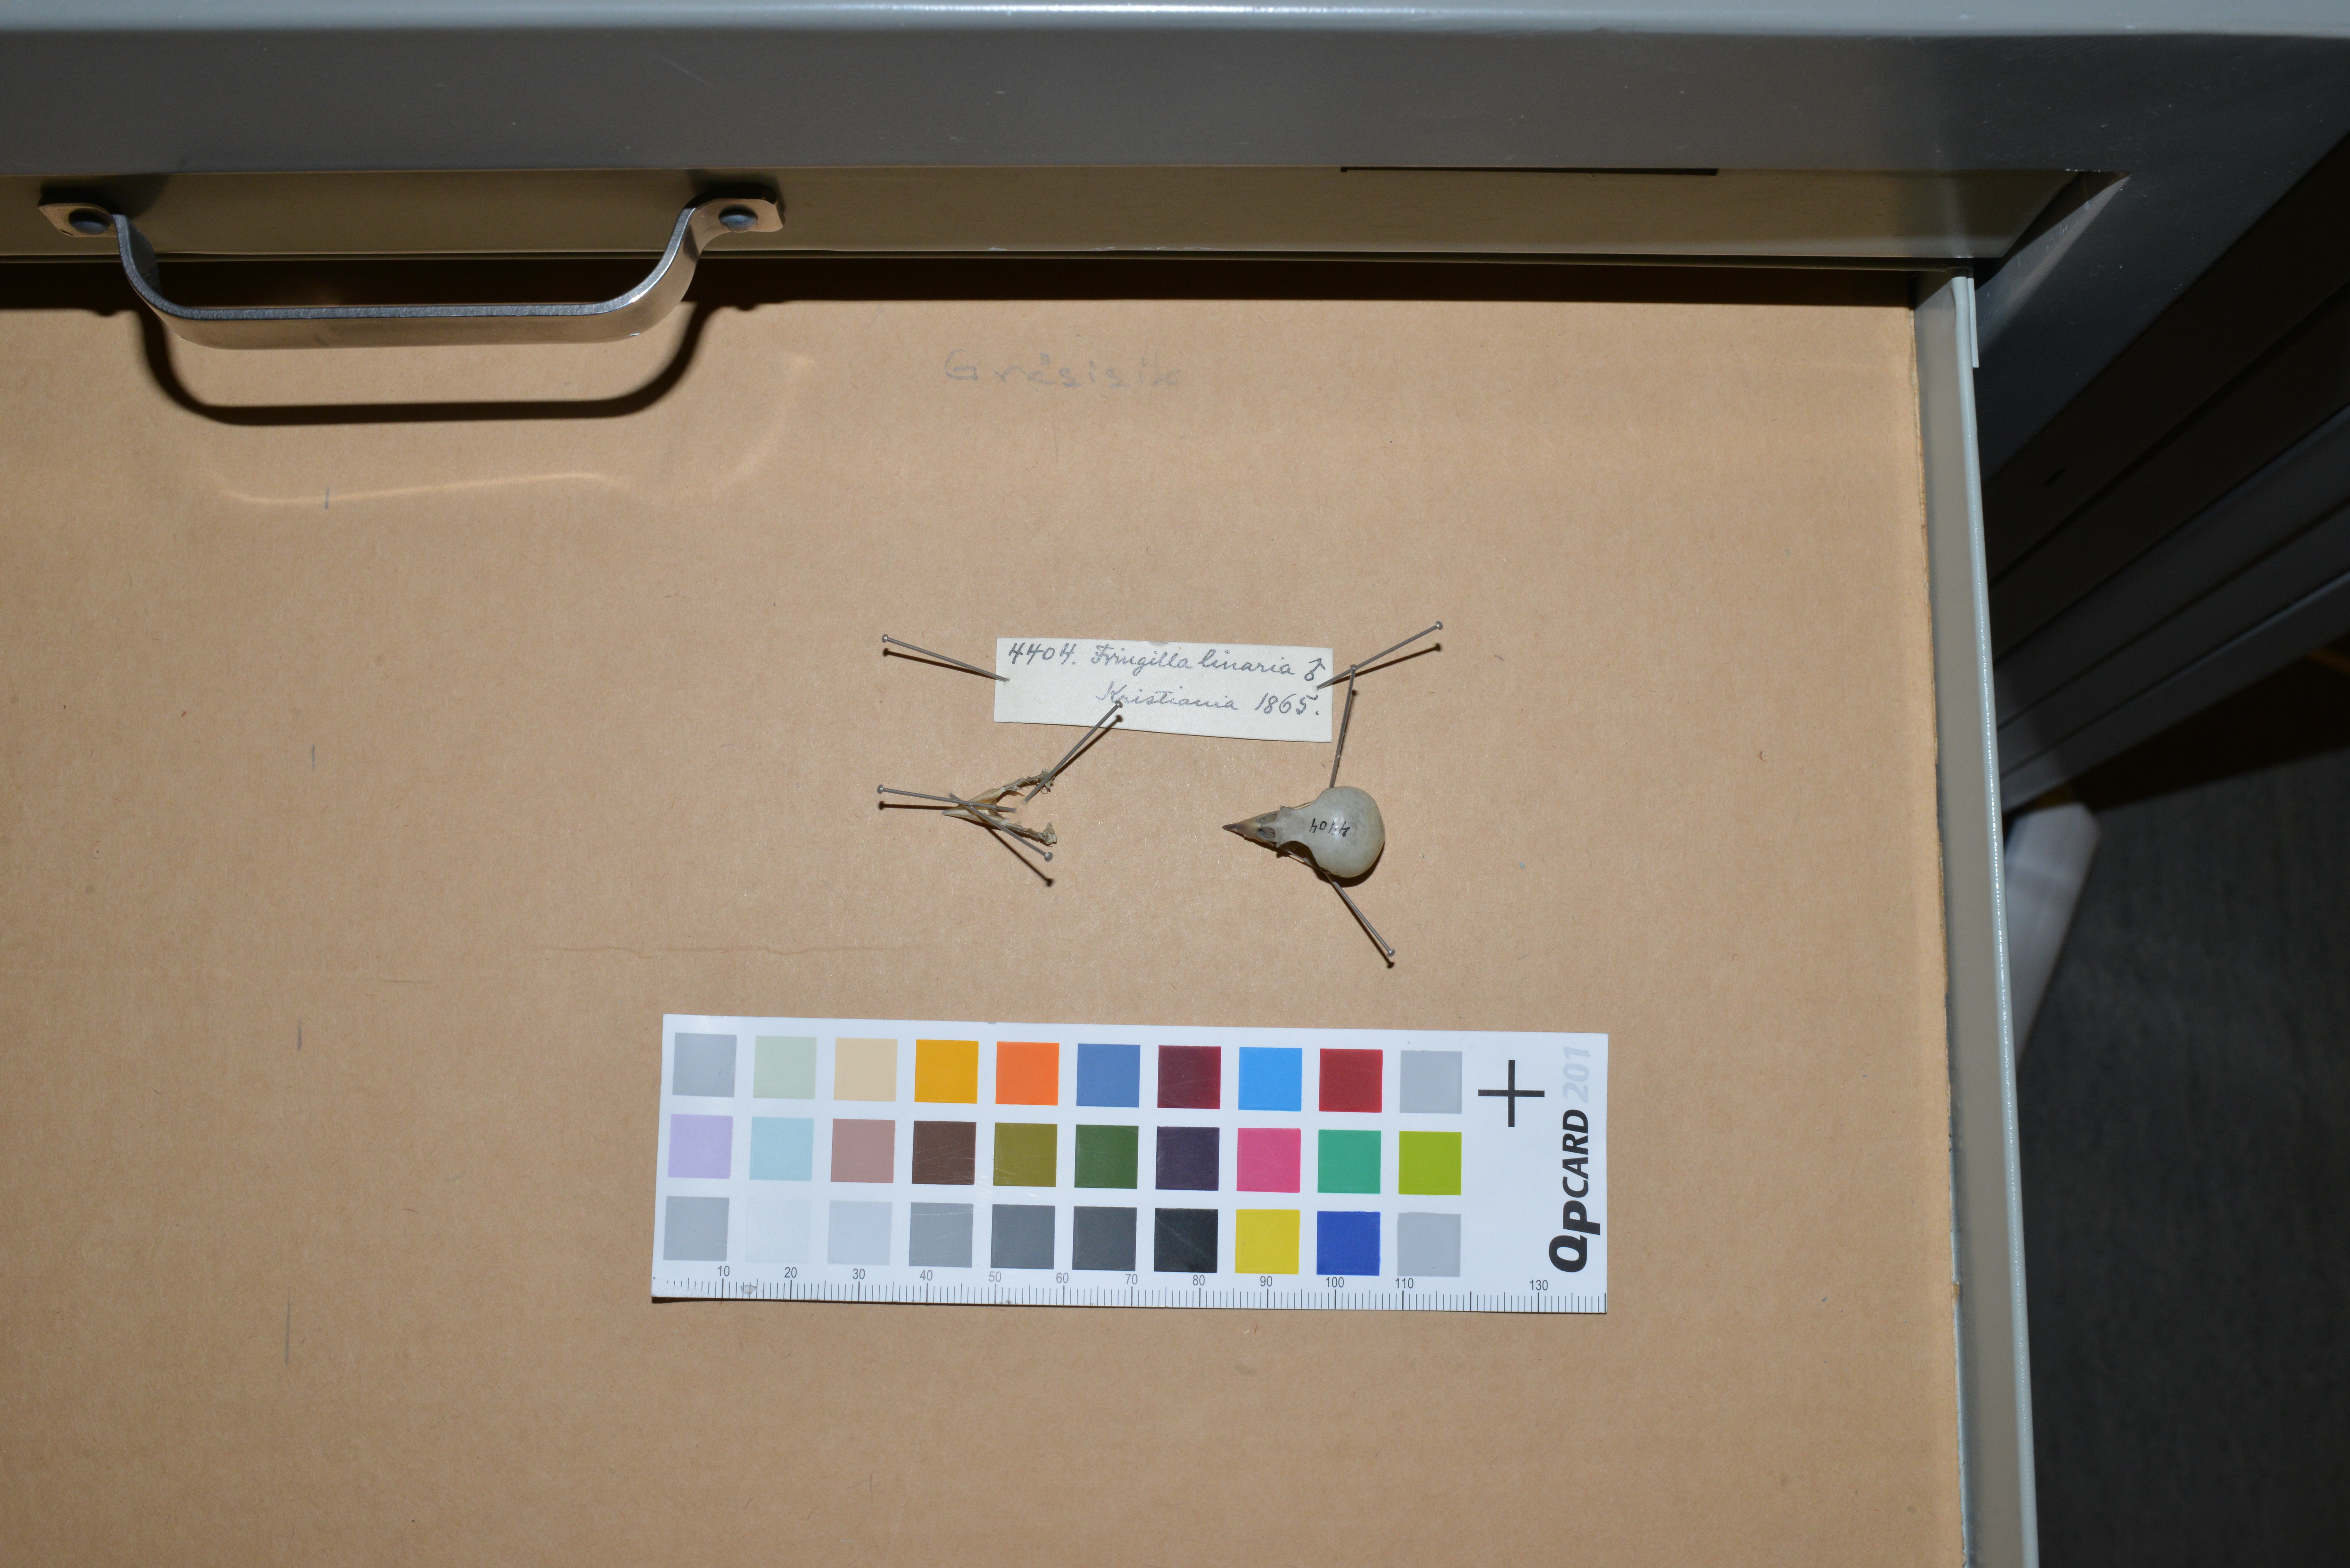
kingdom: Animalia
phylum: Chordata
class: Aves
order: Passeriformes
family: Fringillidae
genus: Acanthis
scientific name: Acanthis flammea
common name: Common redpoll
